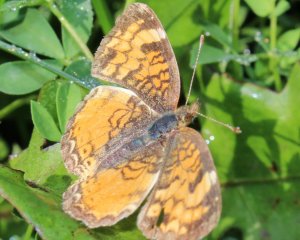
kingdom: Animalia
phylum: Arthropoda
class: Insecta
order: Lepidoptera
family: Nymphalidae
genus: Phyciodes
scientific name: Phyciodes tharos
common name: Northern Crescent
